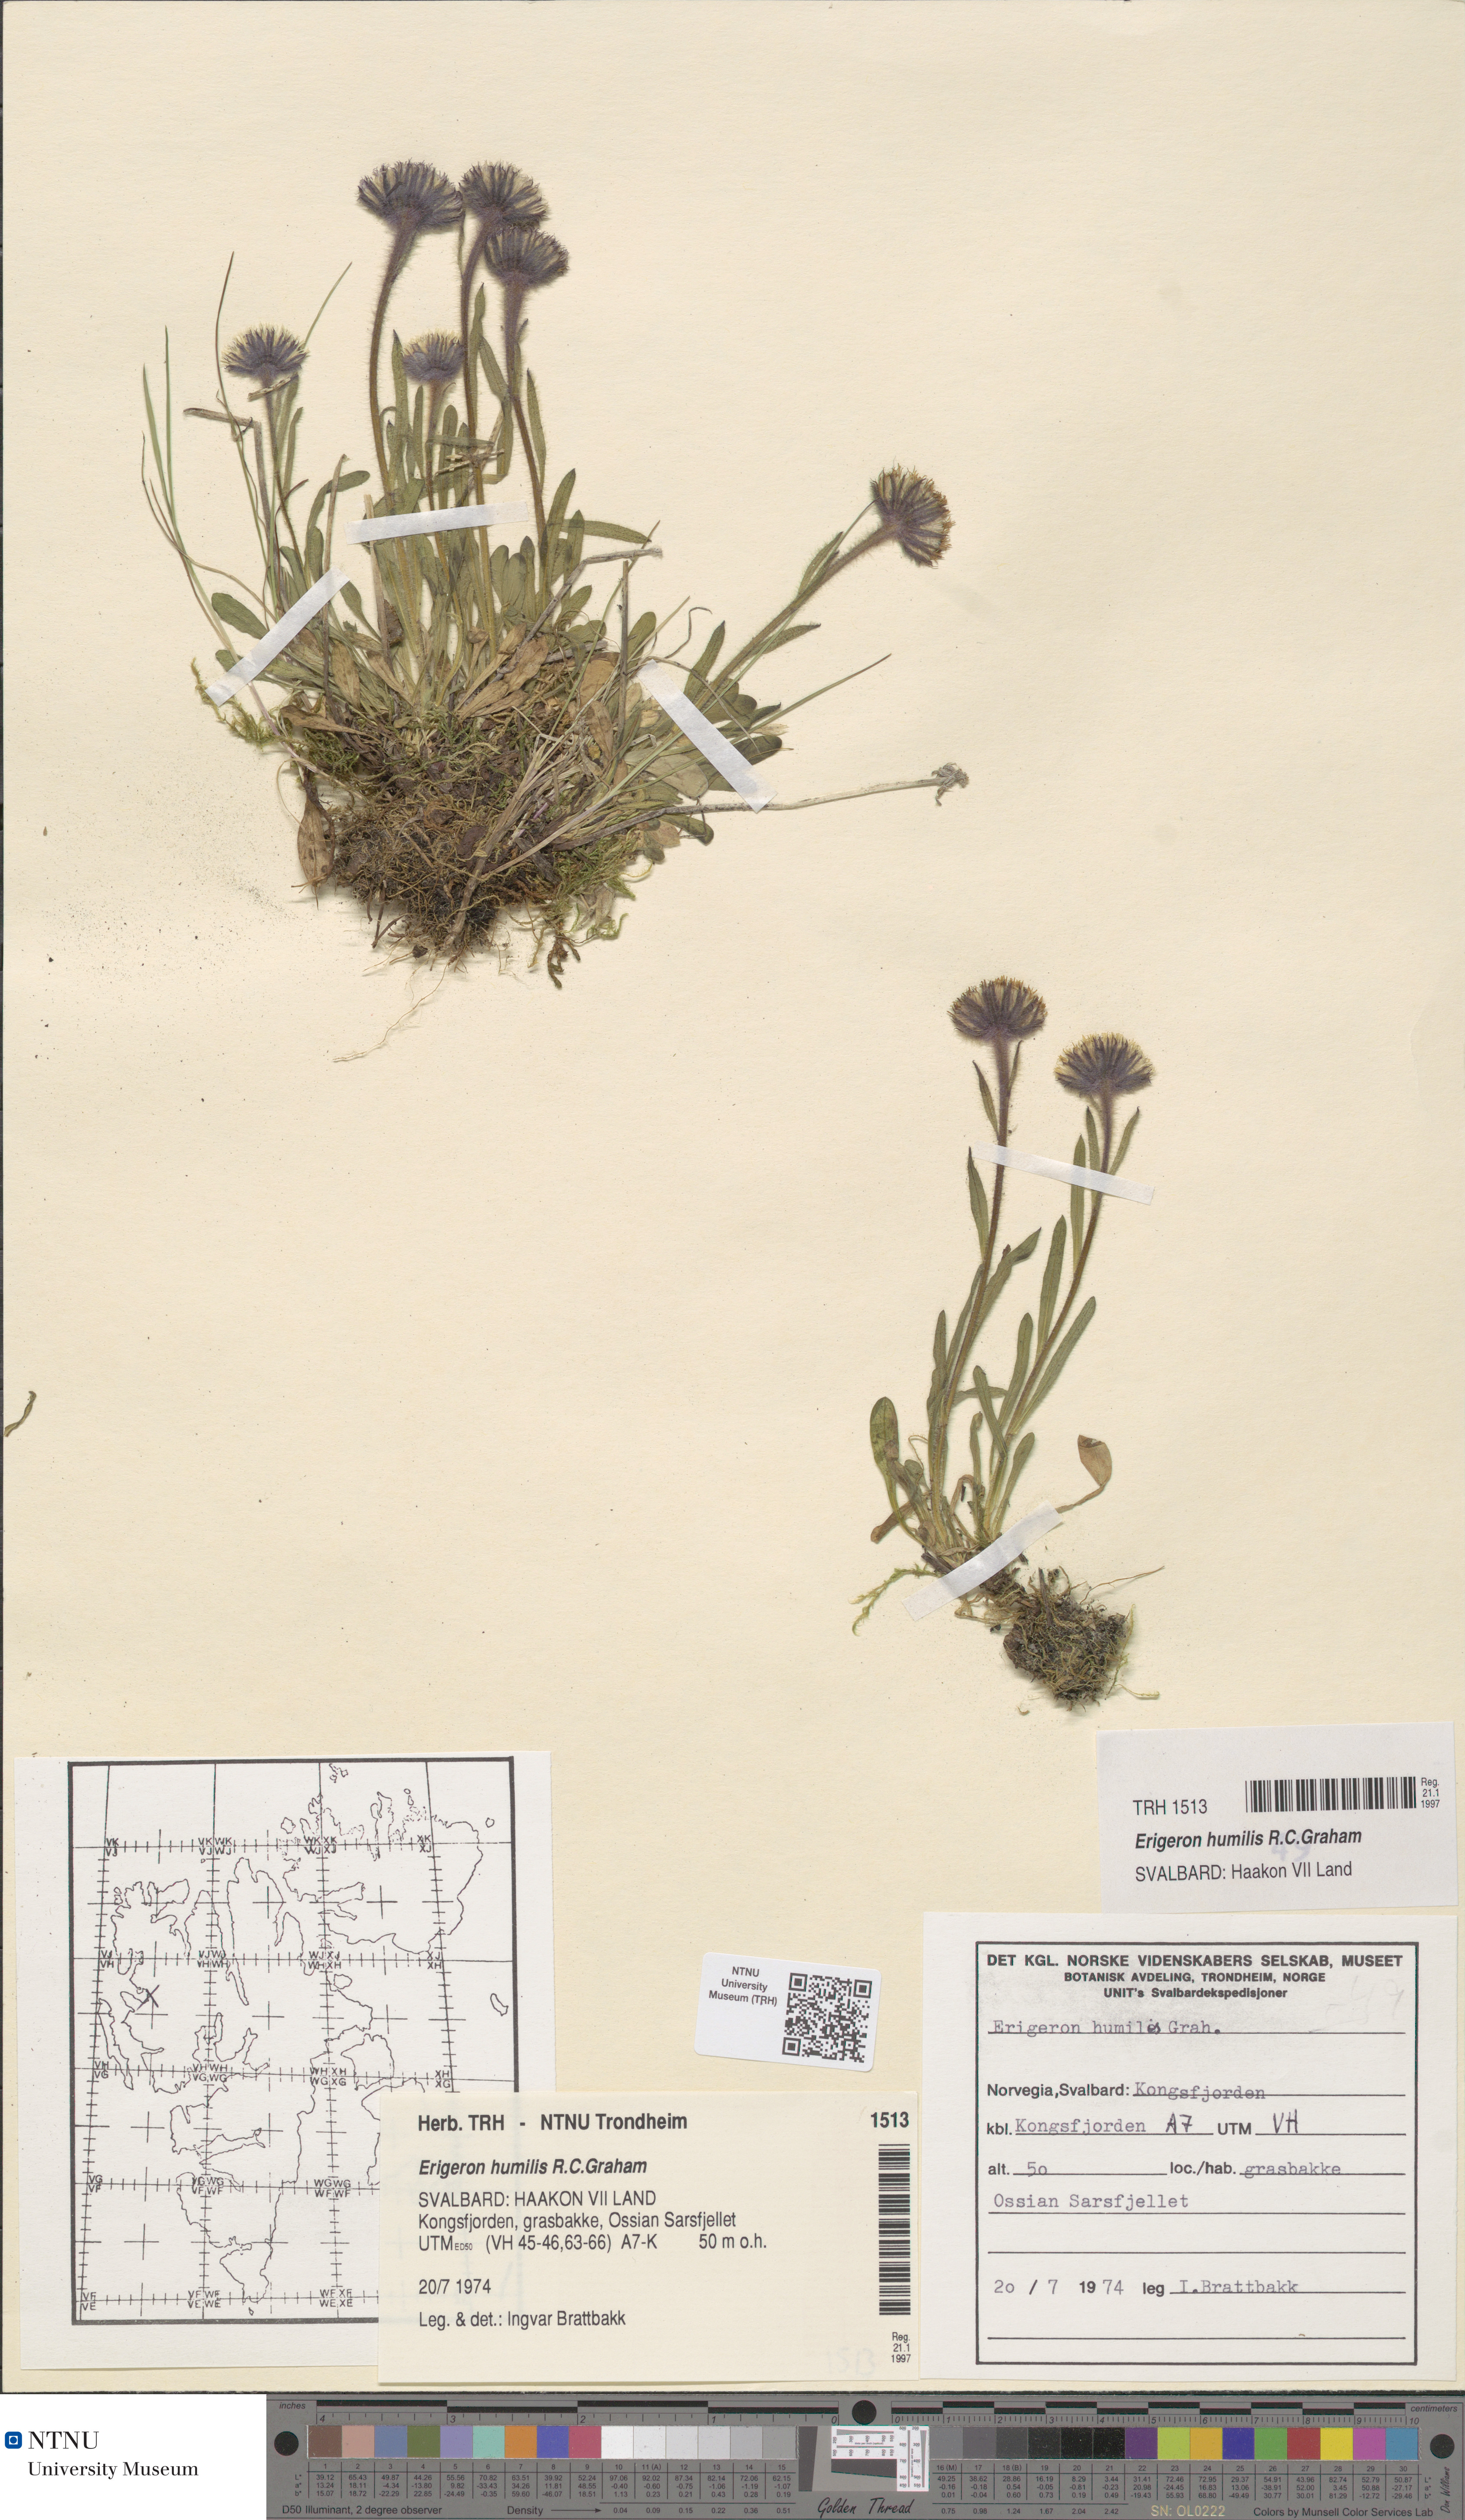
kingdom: Plantae
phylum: Tracheophyta
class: Magnoliopsida
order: Asterales
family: Asteraceae
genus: Erigeron
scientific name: Erigeron humilis
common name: Arctic-alpine fleabane
